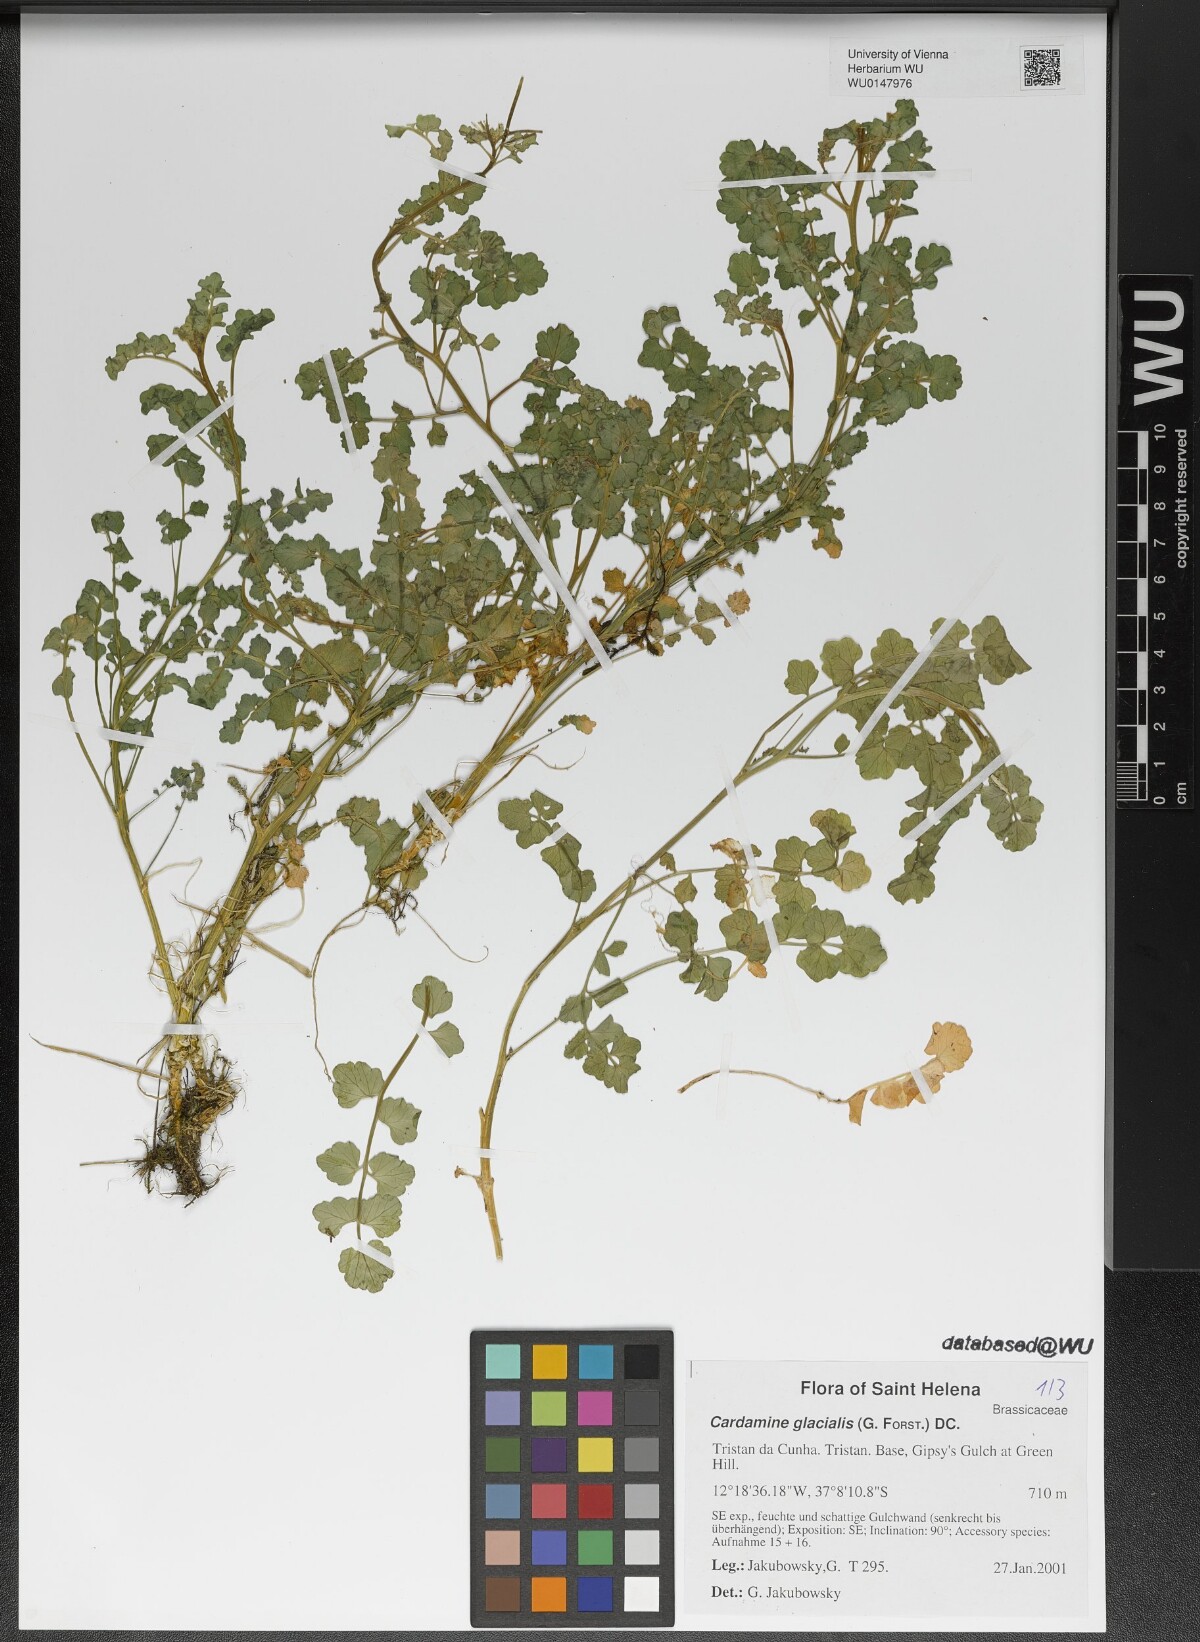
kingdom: Plantae
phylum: Tracheophyta
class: Magnoliopsida
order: Brassicales
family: Brassicaceae
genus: Cardamine
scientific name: Cardamine glacialis
